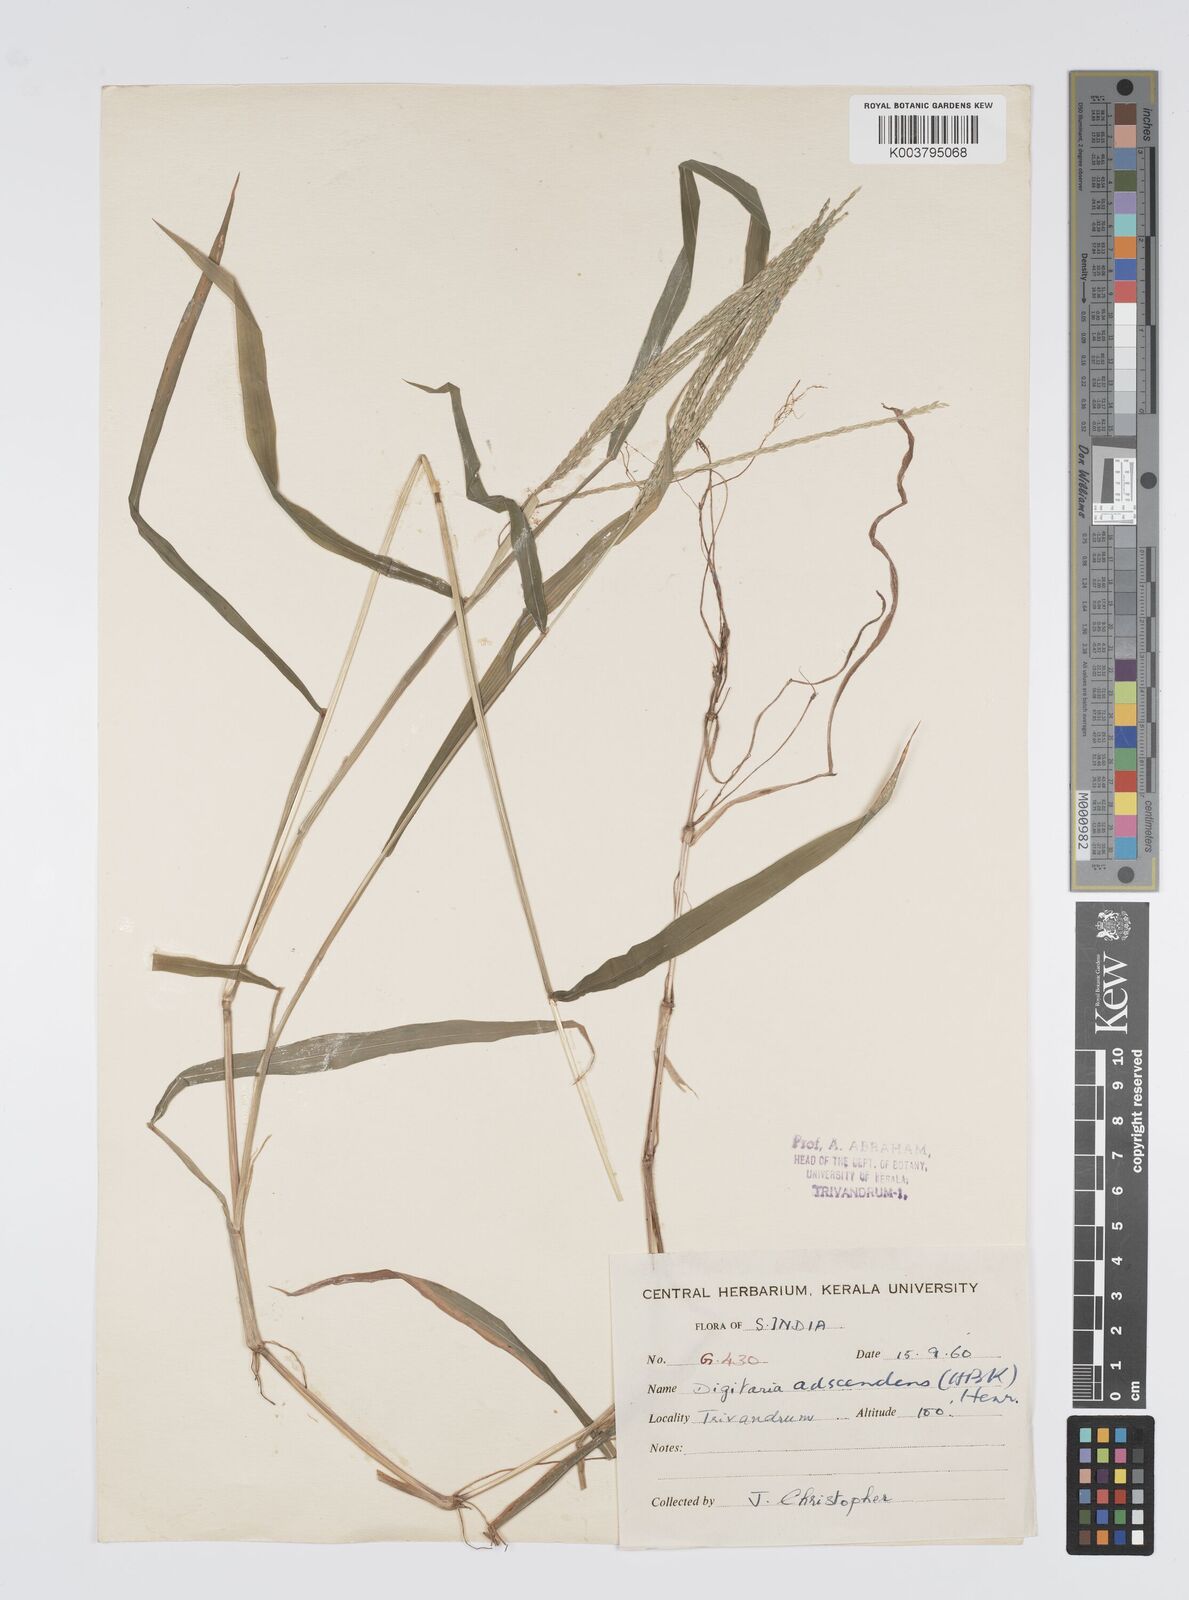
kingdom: Plantae
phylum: Tracheophyta
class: Liliopsida
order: Poales
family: Poaceae
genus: Digitaria
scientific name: Digitaria setigera
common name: East indian crabgrass
